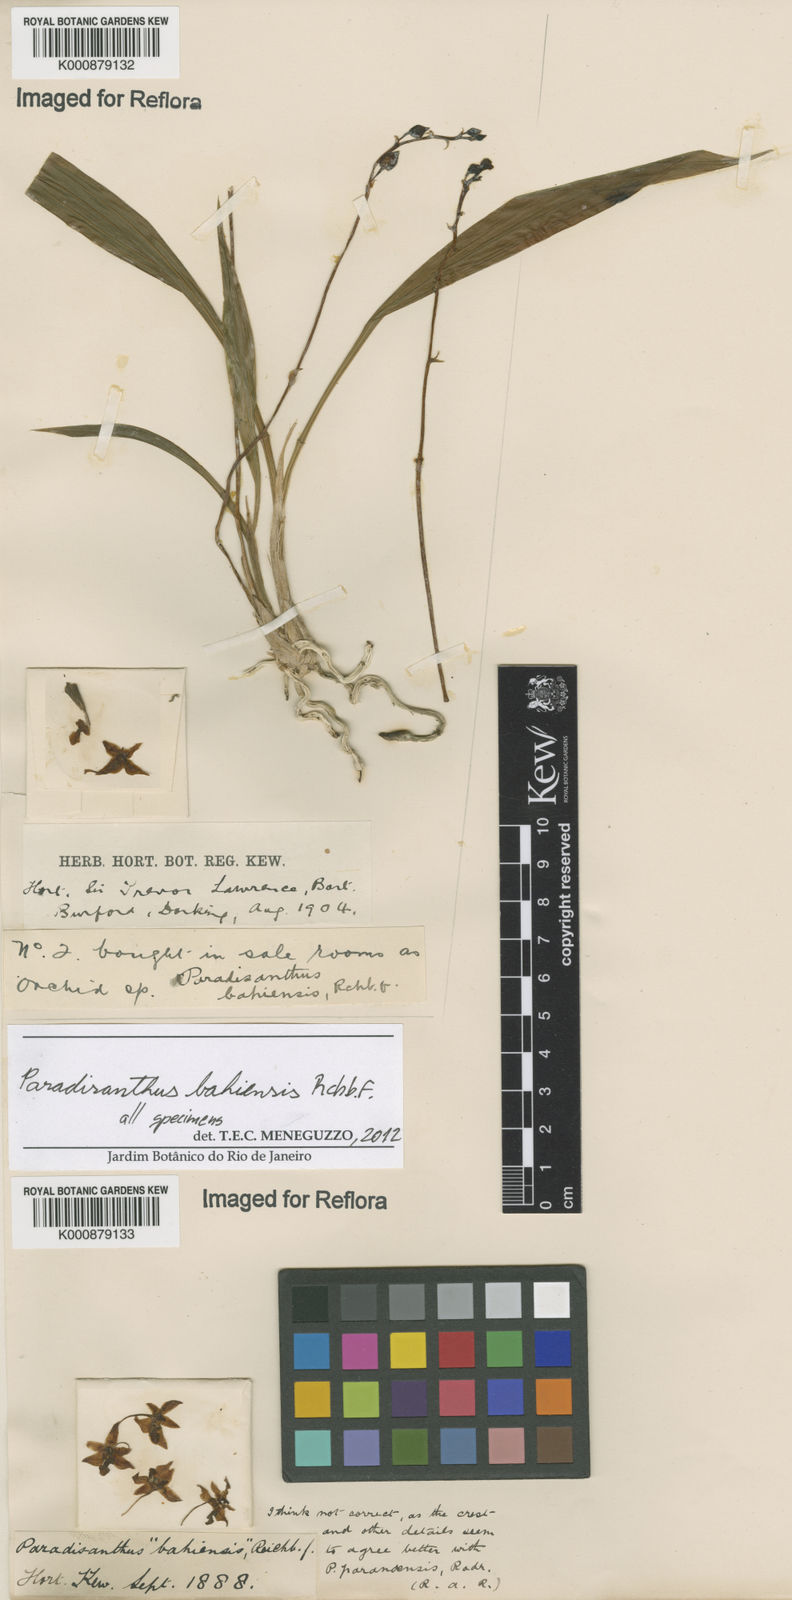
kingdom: Plantae
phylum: Tracheophyta
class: Liliopsida
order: Asparagales
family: Orchidaceae
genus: Paradisanthus
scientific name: Paradisanthus bahiensis
